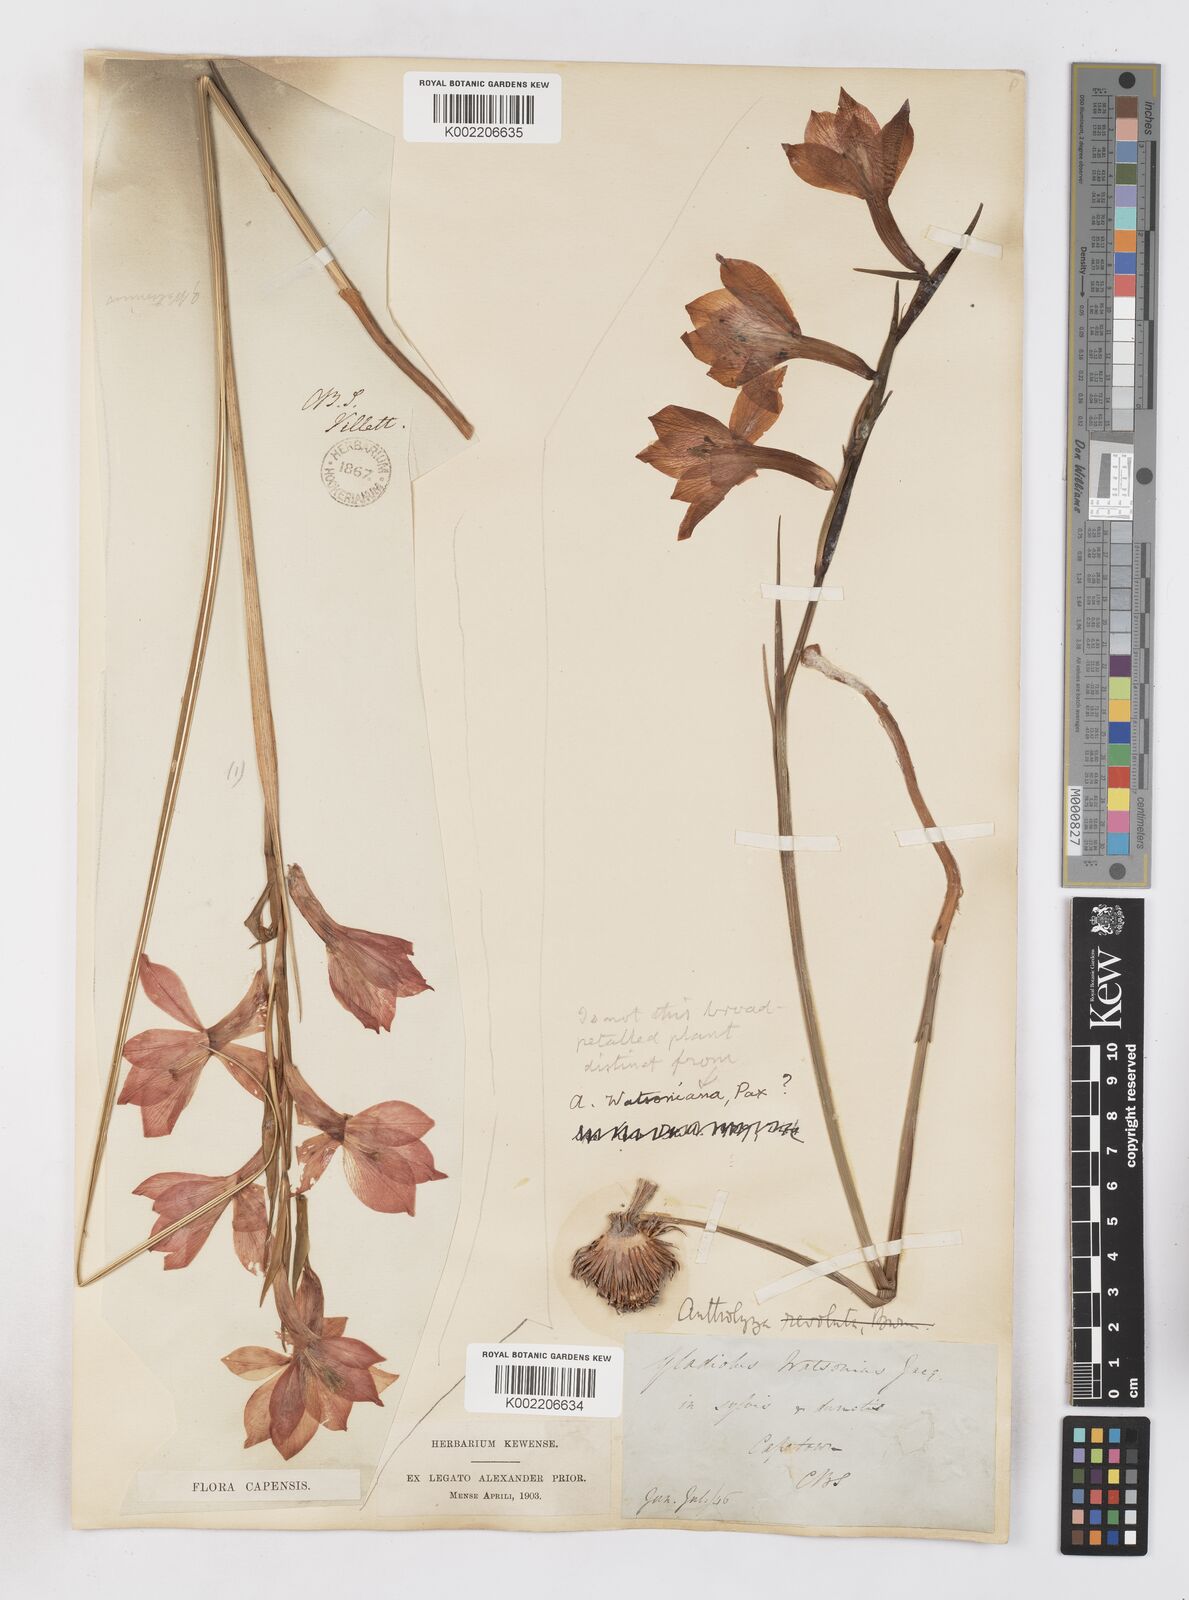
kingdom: Plantae
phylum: Tracheophyta
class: Liliopsida
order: Asparagales
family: Iridaceae
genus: Gladiolus
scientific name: Gladiolus
